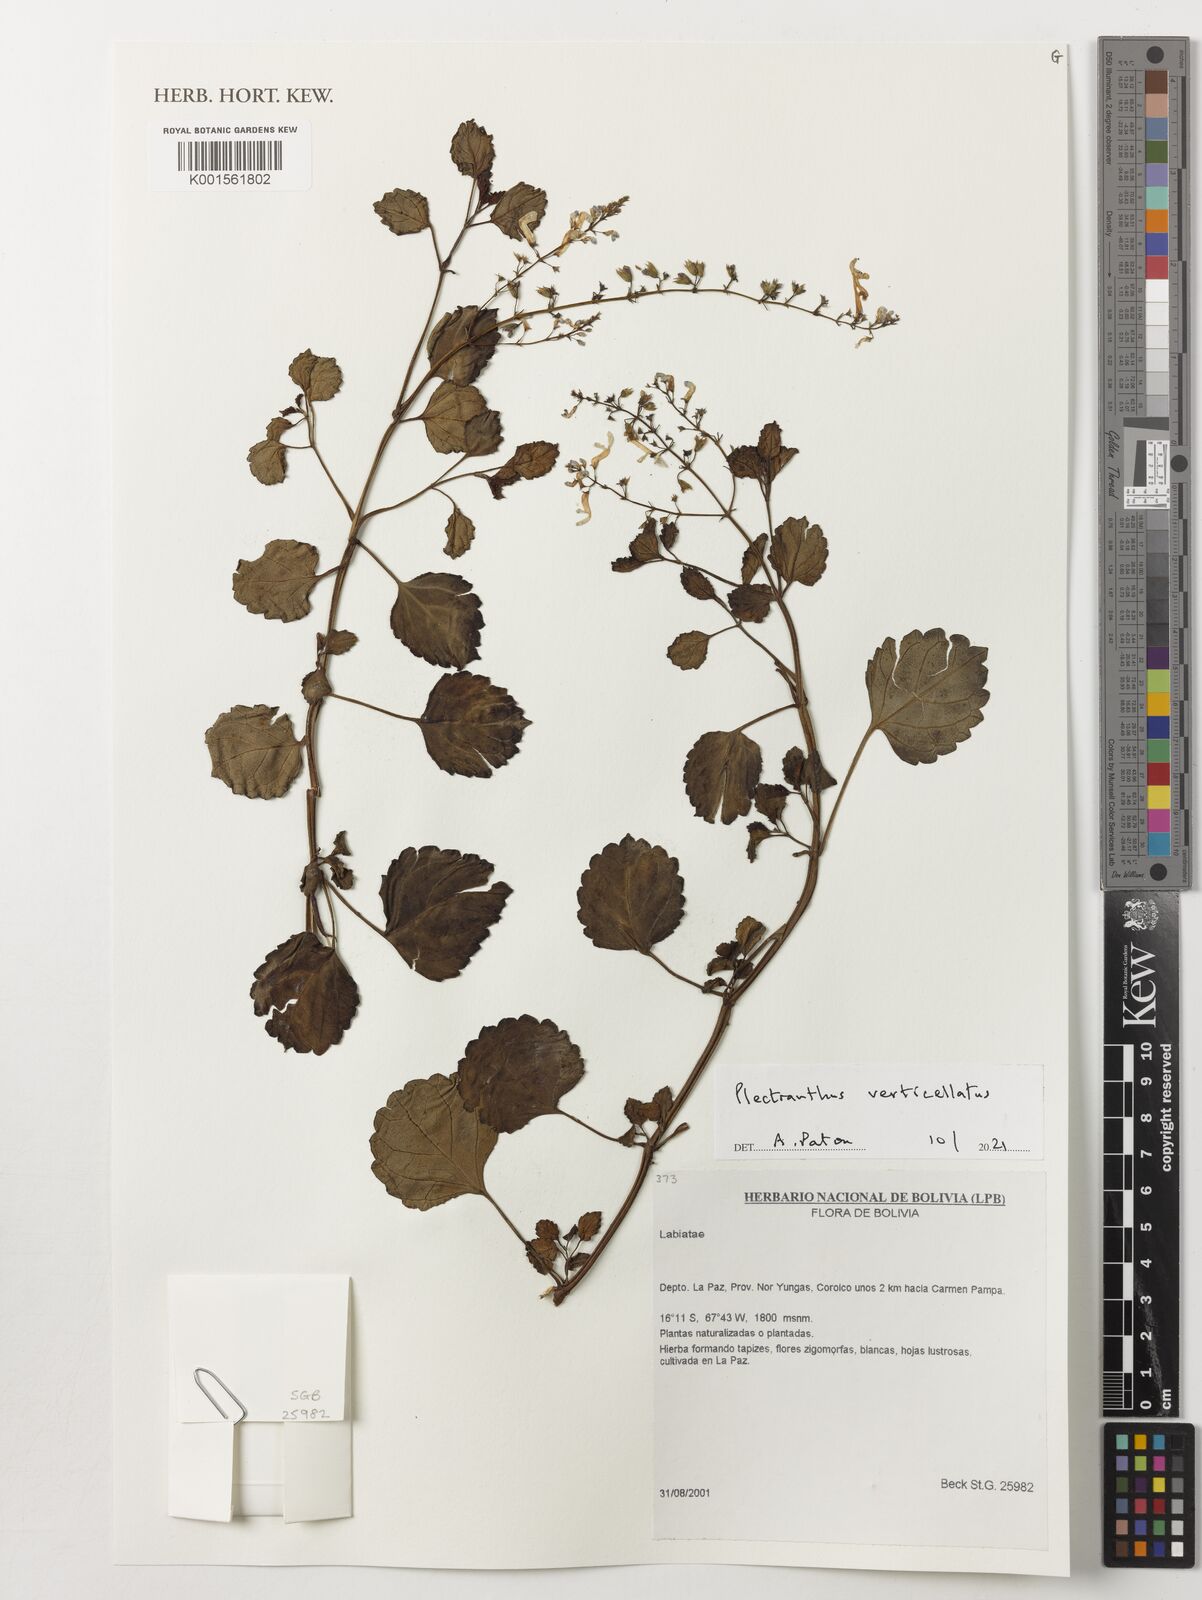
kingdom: Plantae
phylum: Tracheophyta
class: Magnoliopsida
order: Lamiales
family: Lamiaceae
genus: Plectranthus
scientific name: Plectranthus verticillatus
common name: Whorled plectranthus
